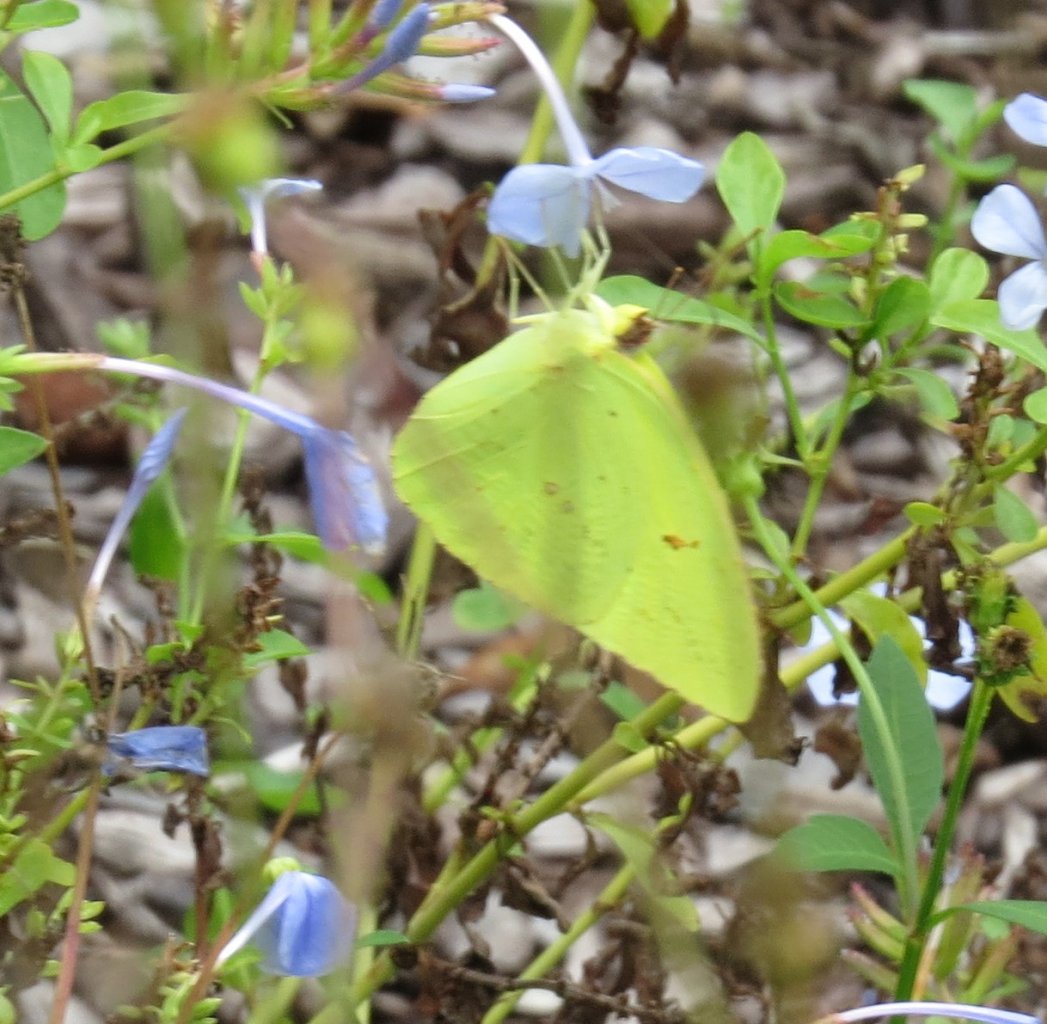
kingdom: Animalia
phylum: Arthropoda
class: Insecta
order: Lepidoptera
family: Pieridae
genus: Phoebis
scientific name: Phoebis sennae
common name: Cloudless Sulphur
